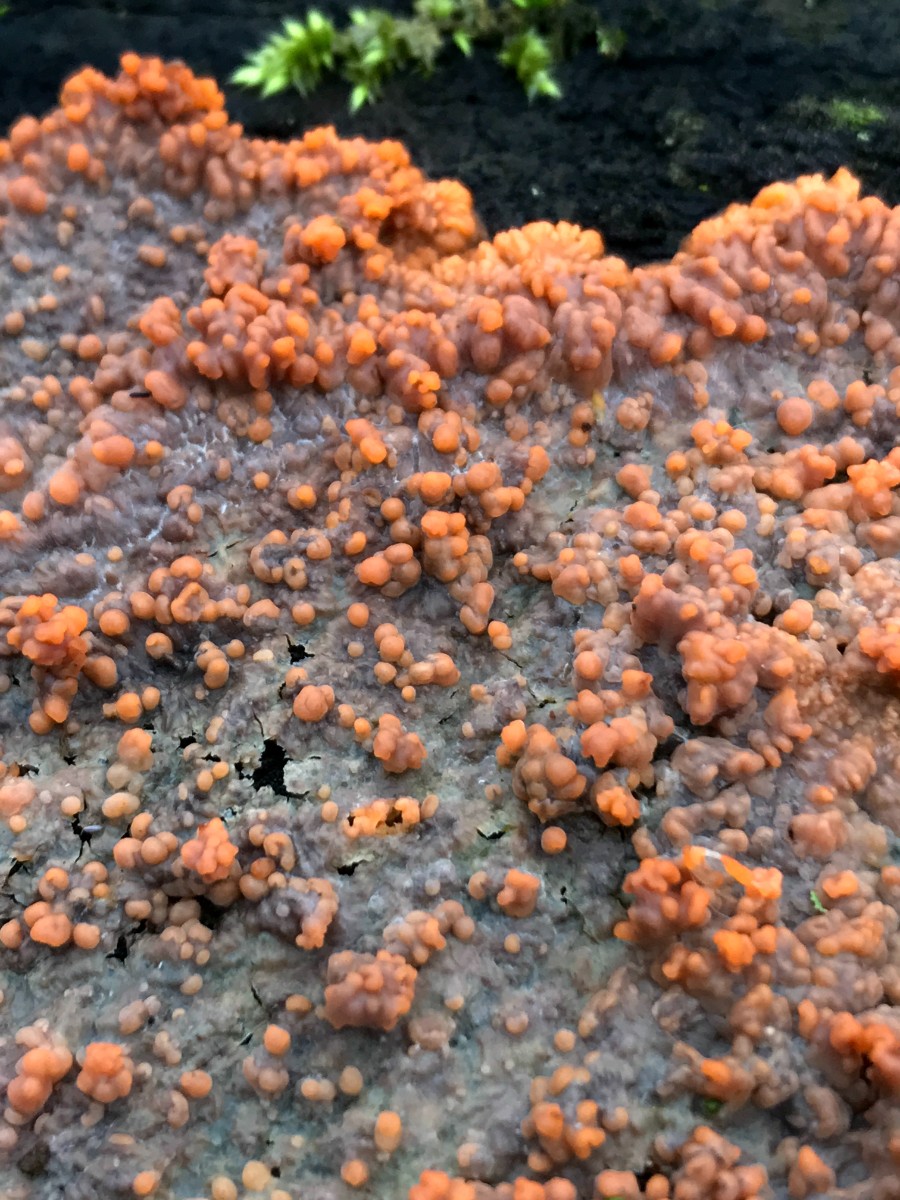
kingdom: Fungi
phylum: Basidiomycota
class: Agaricomycetes
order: Polyporales
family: Meruliaceae
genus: Phlebia
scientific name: Phlebia radiata
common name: stråle-åresvamp
